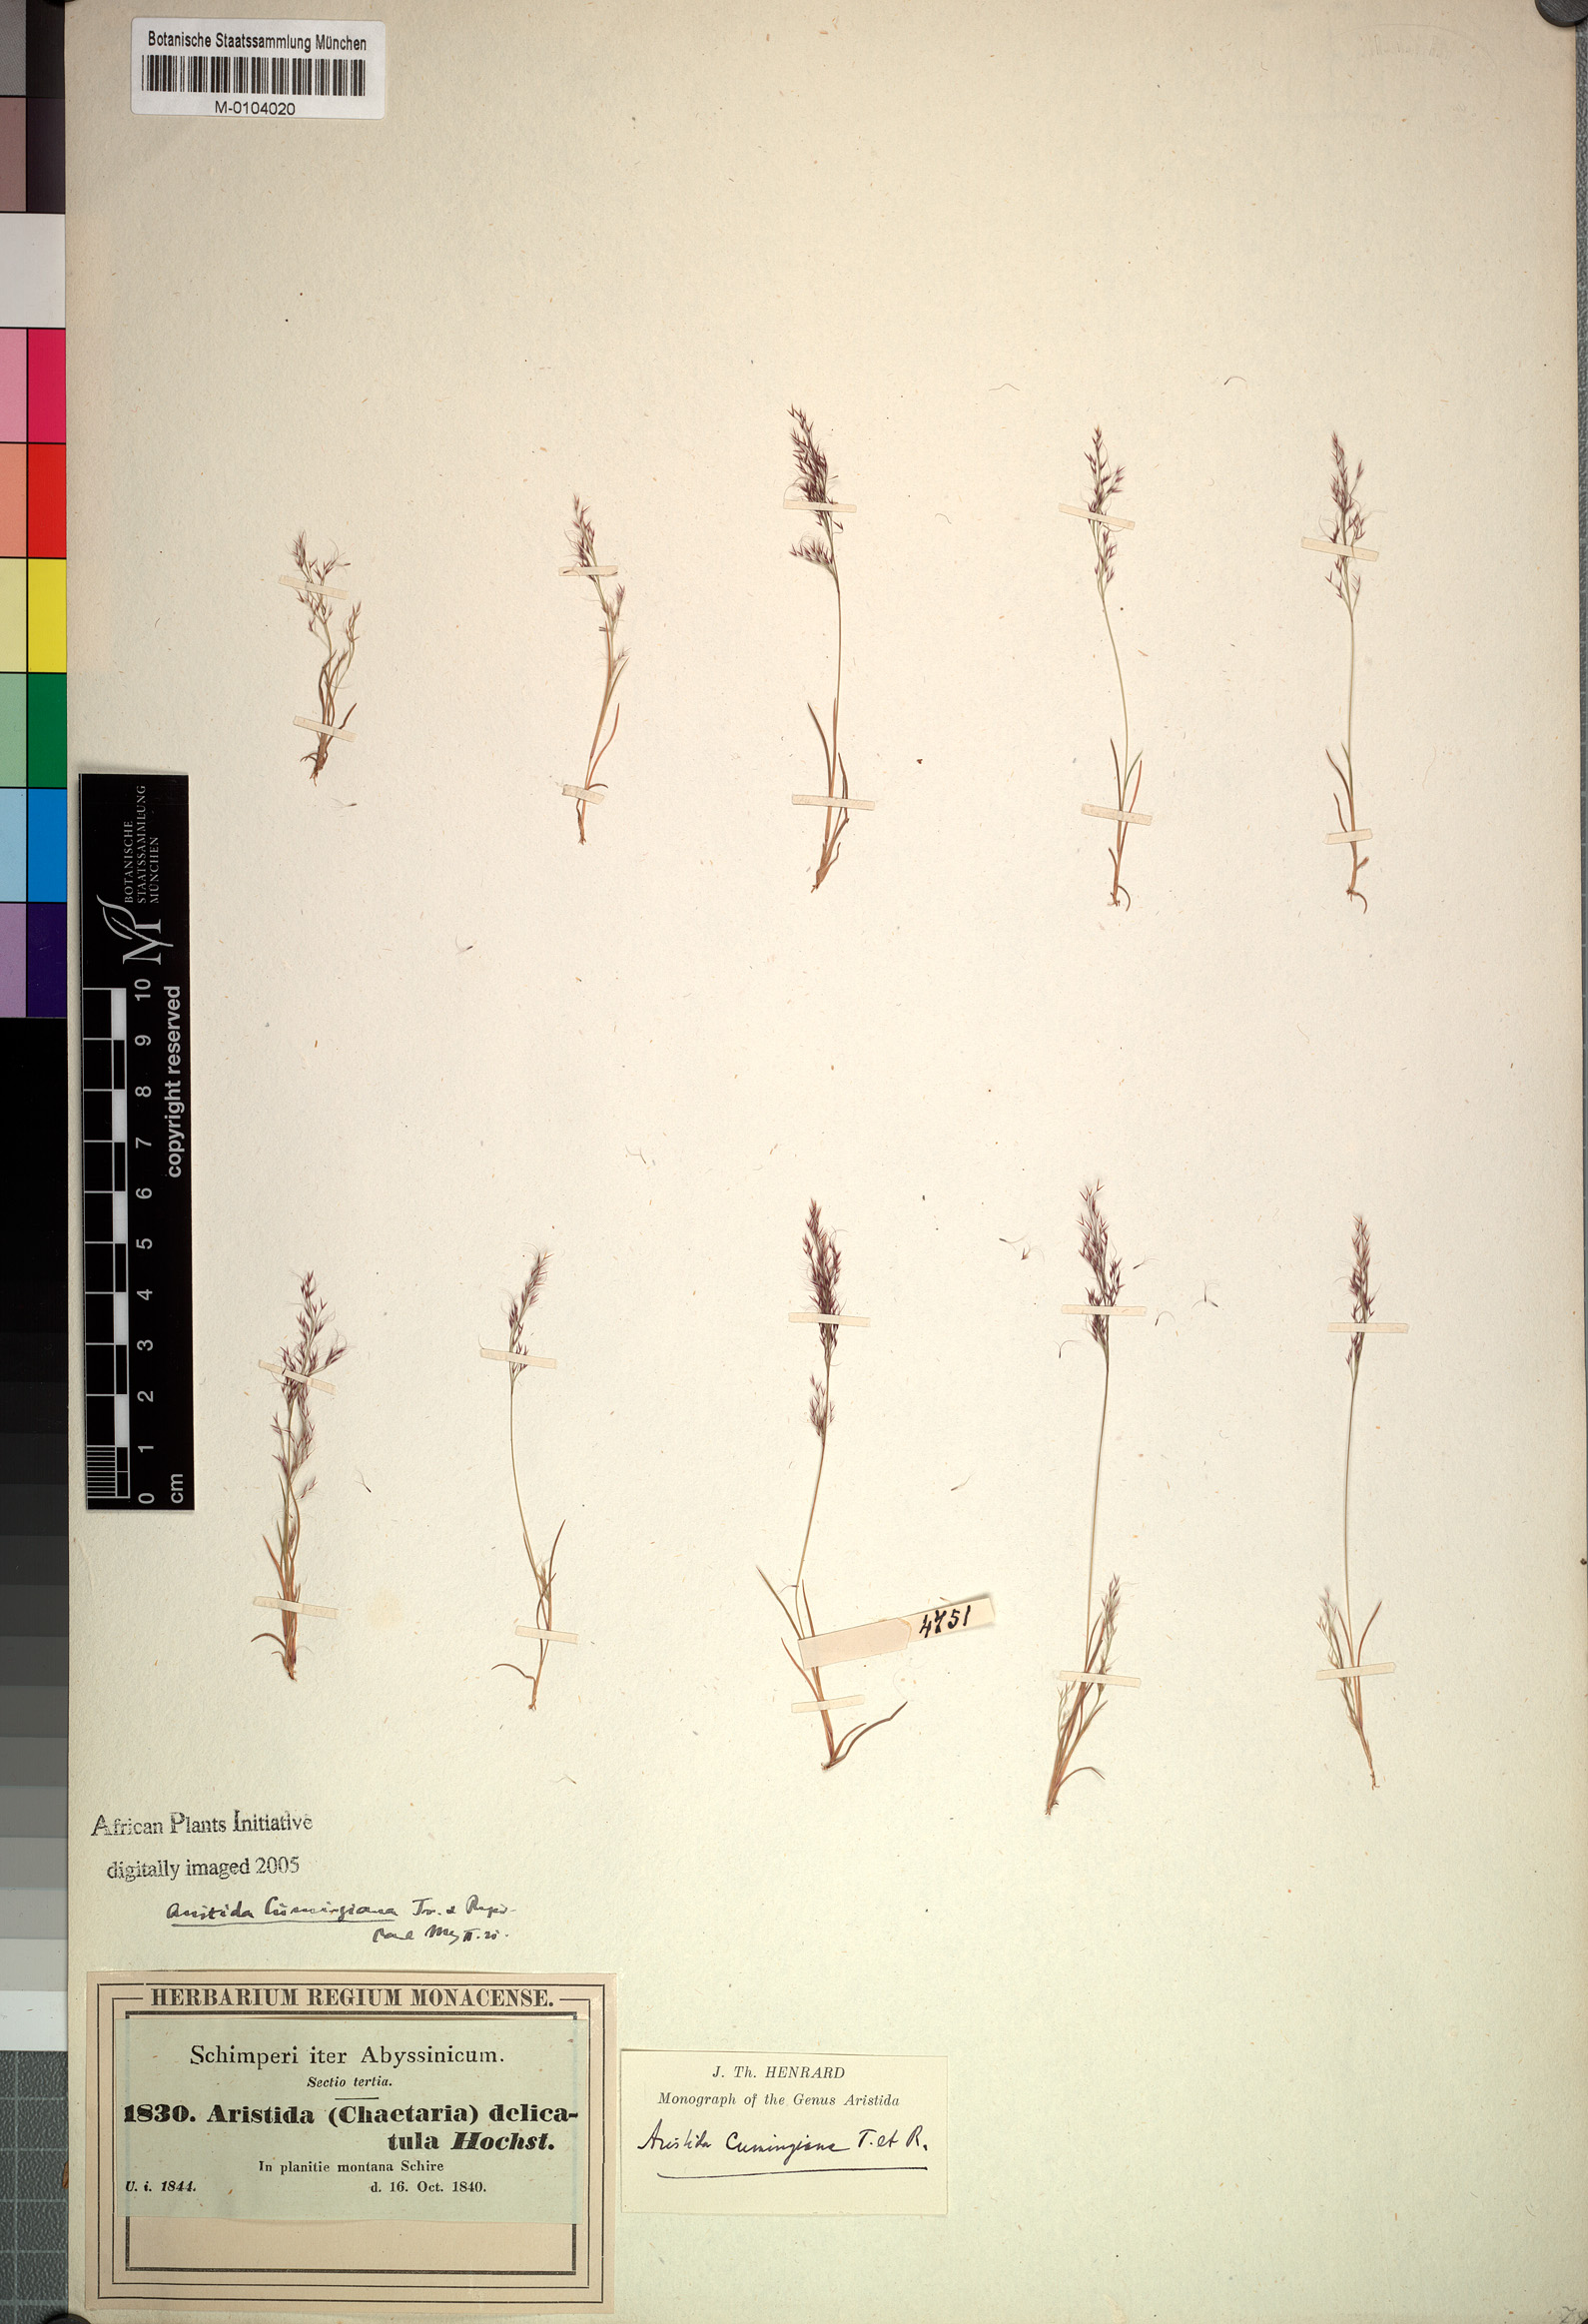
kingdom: Plantae
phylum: Tracheophyta
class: Liliopsida
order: Poales
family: Poaceae
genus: Aristida
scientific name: Aristida cumingiana
